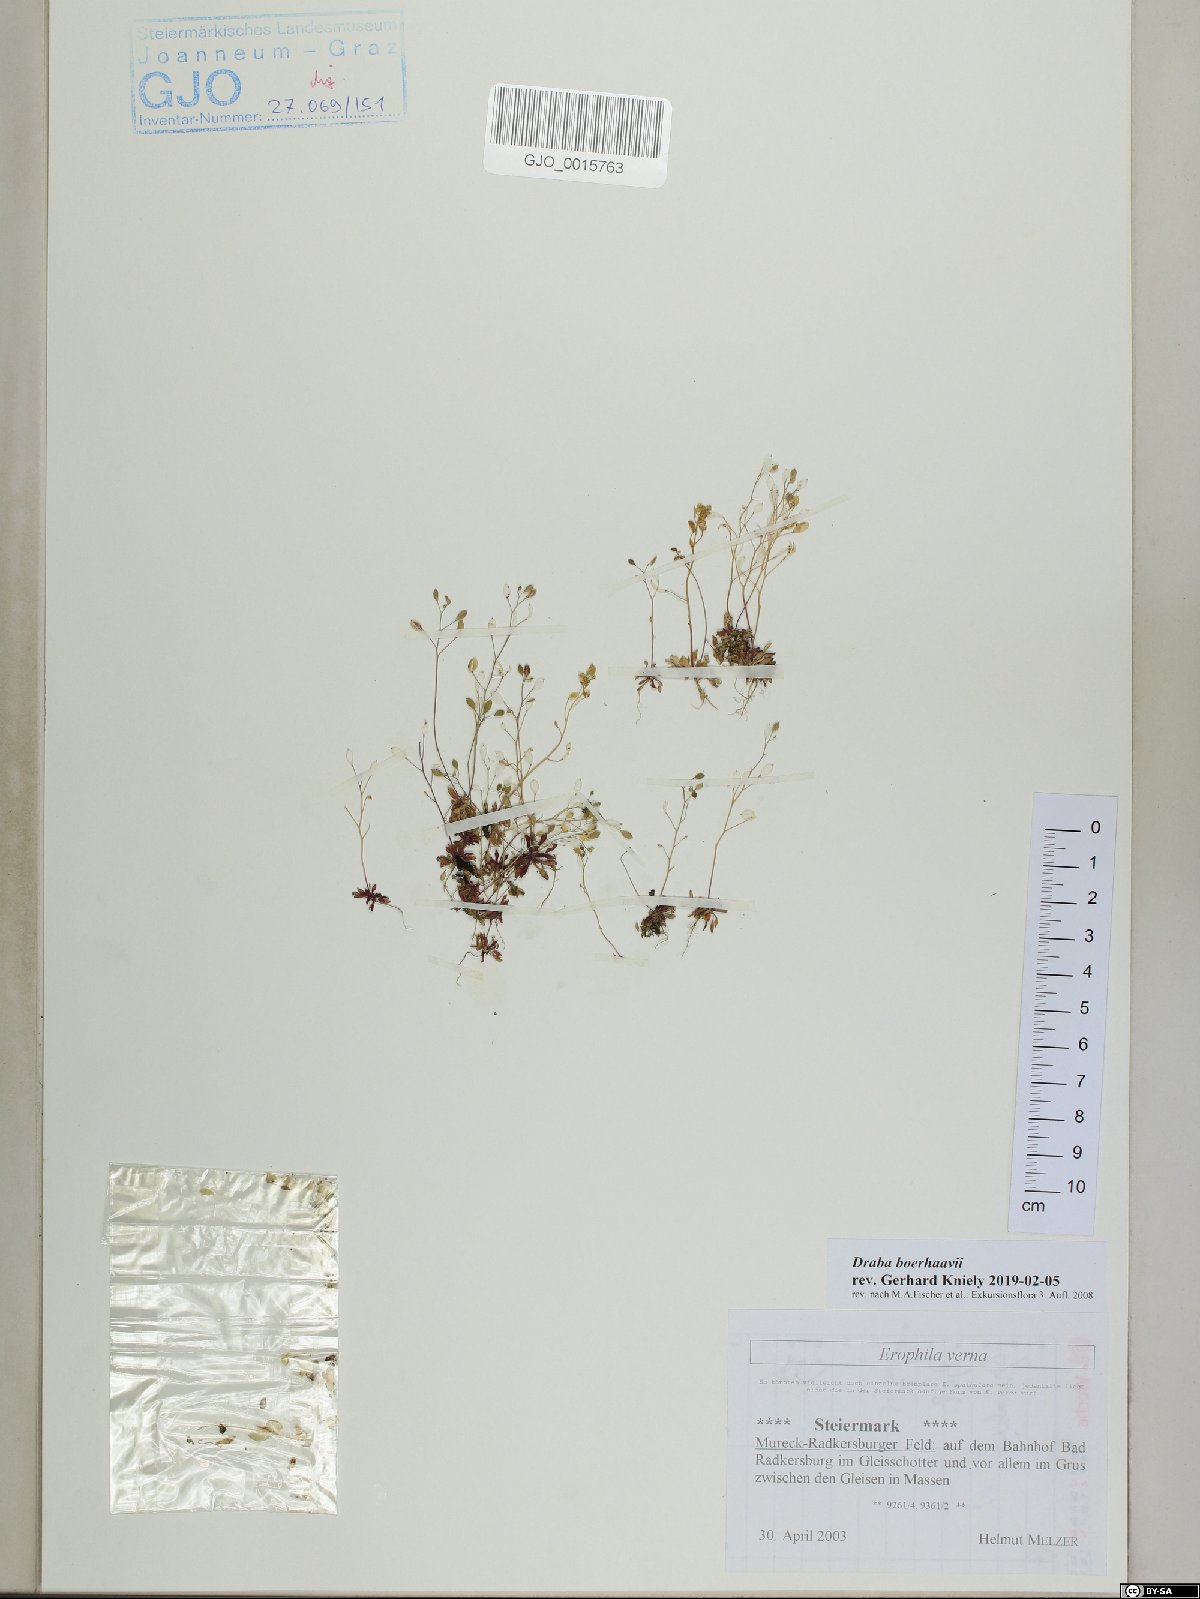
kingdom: Plantae
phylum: Tracheophyta
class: Magnoliopsida
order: Brassicales
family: Brassicaceae
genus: Draba
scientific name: Draba verna
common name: Spring draba
